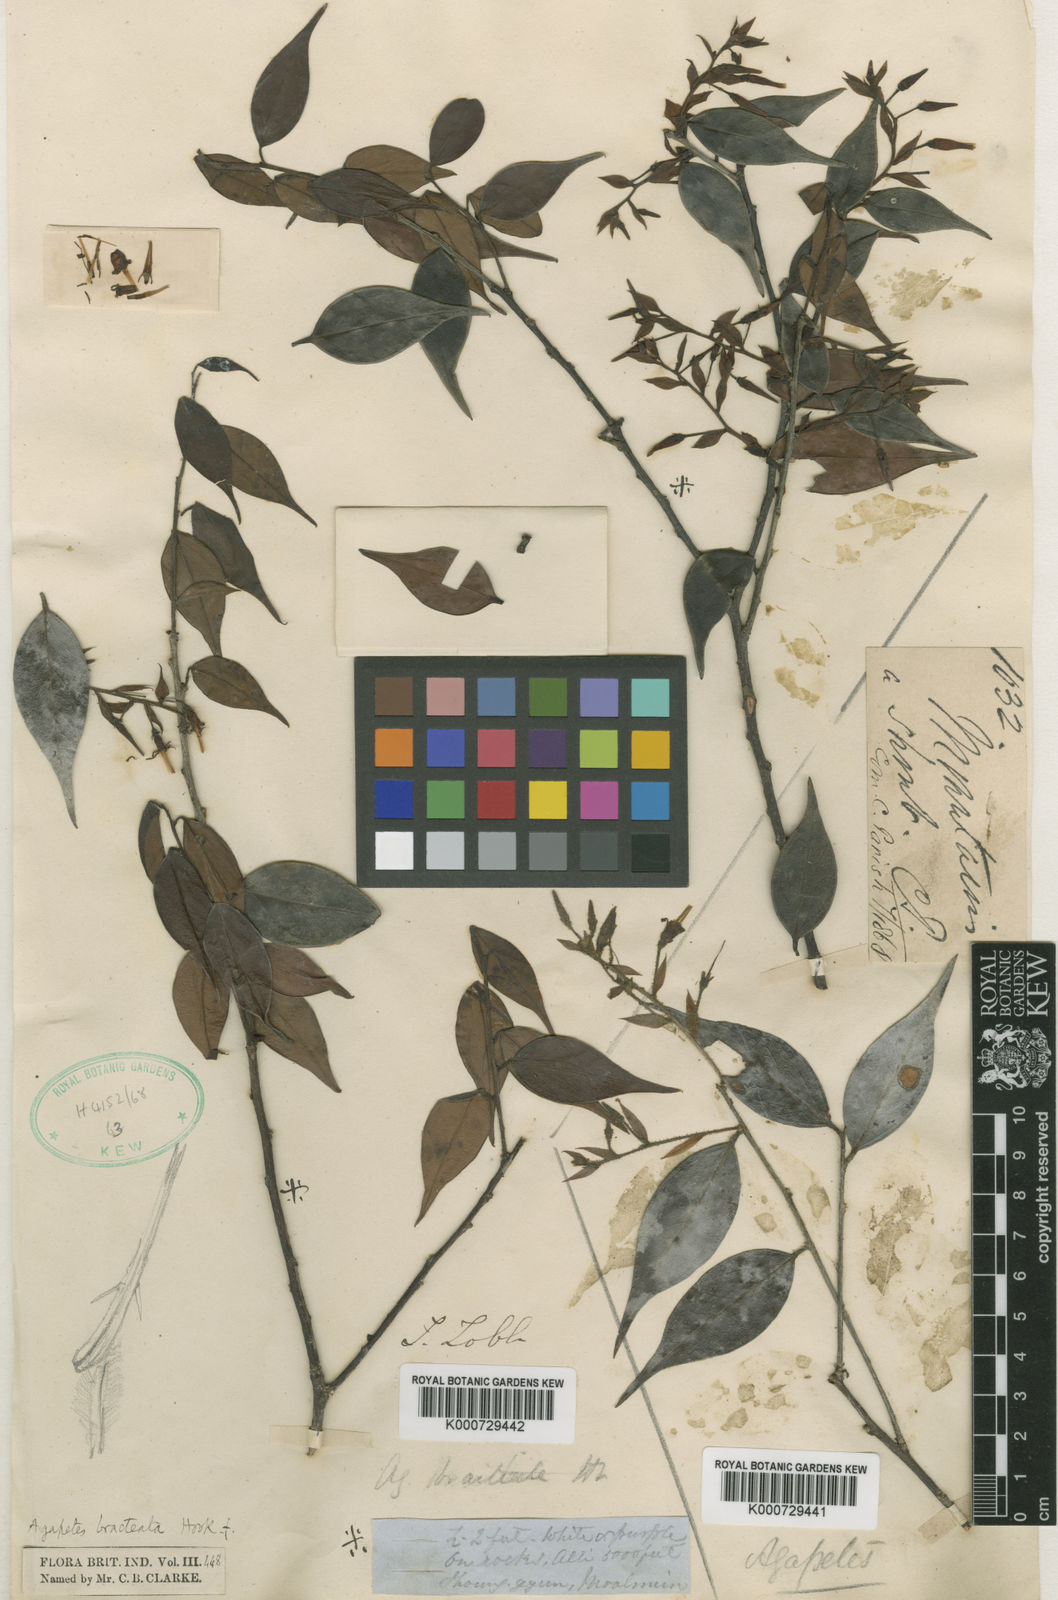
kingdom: Plantae
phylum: Tracheophyta
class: Magnoliopsida
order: Ericales
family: Ericaceae
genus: Agapetes
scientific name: Agapetes bracteata
